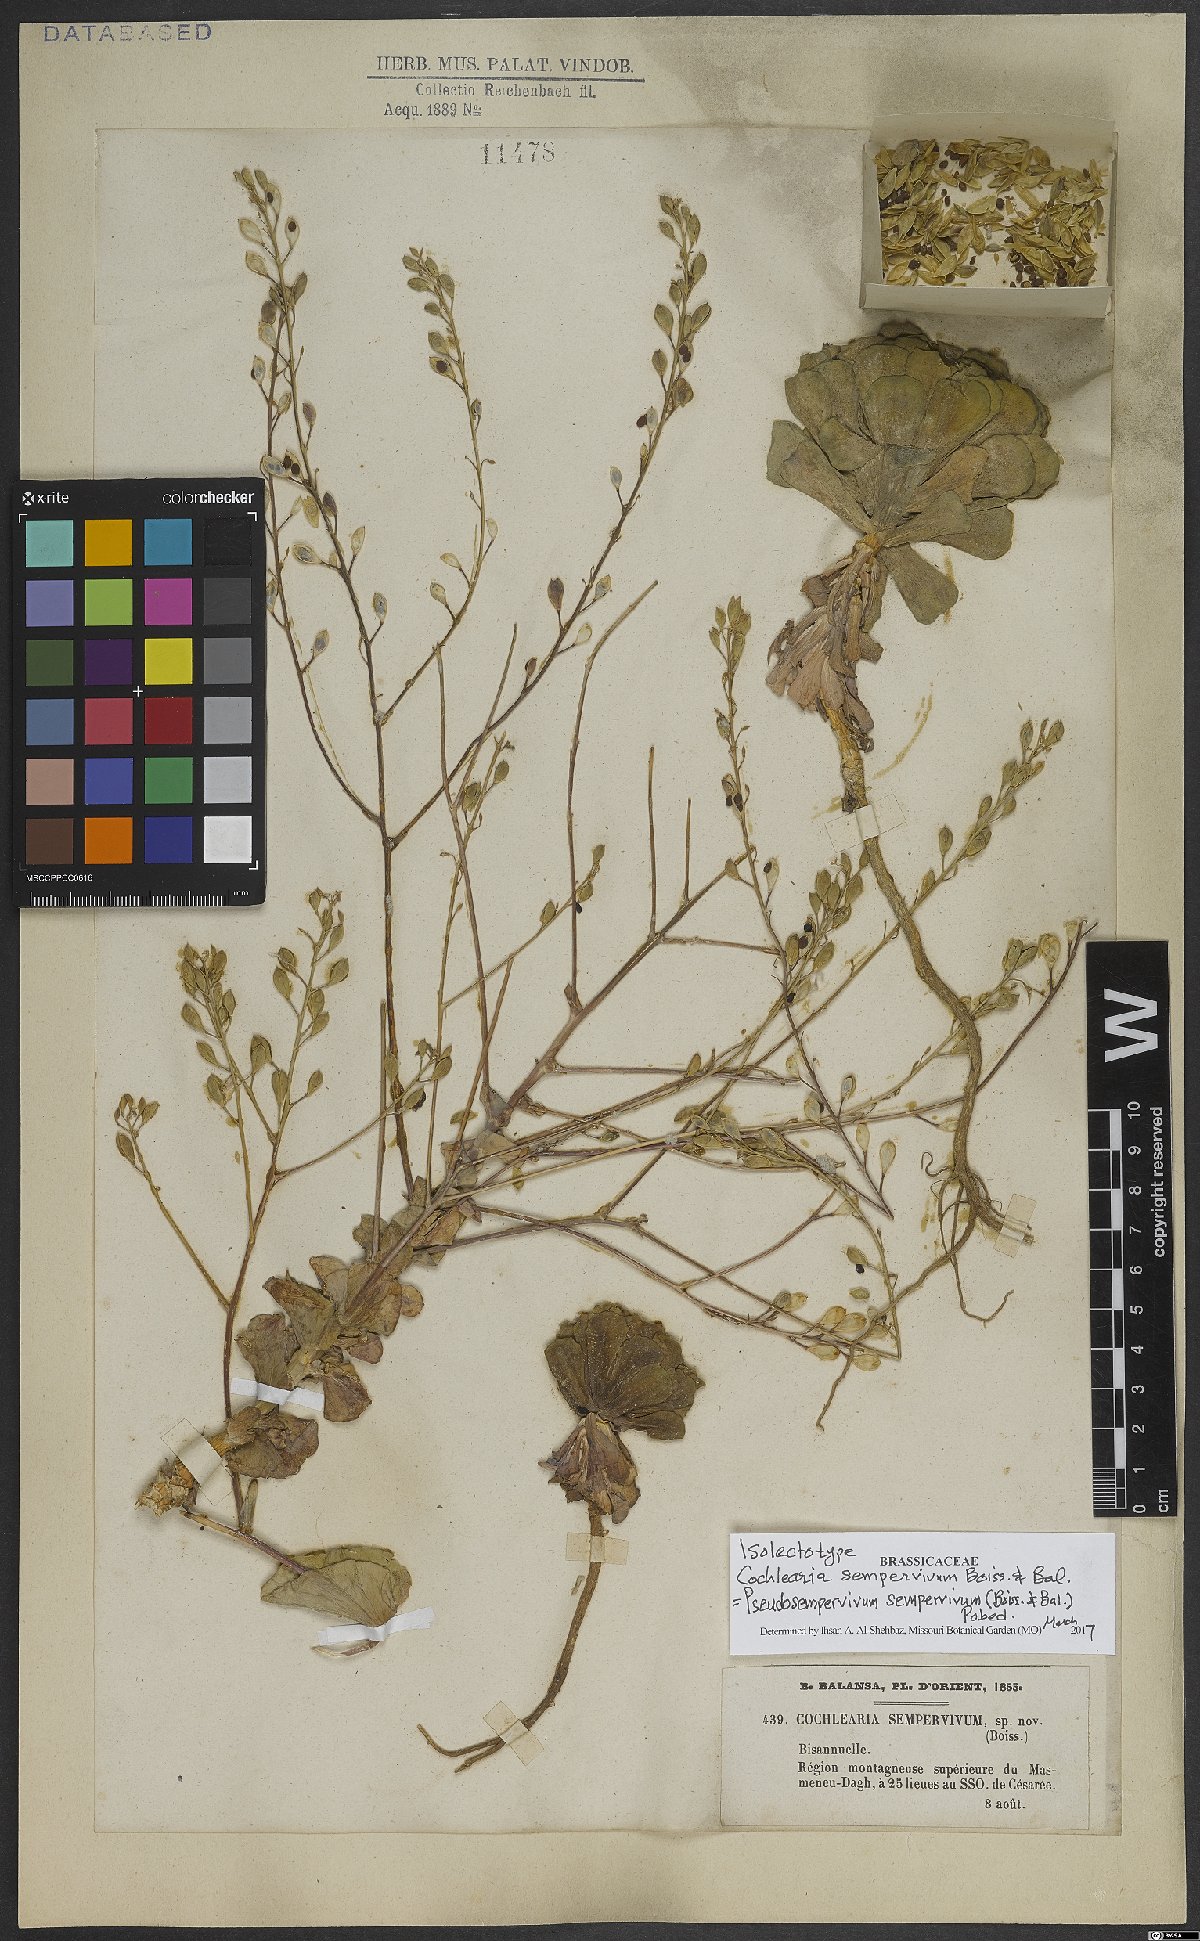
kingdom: Plantae
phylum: Tracheophyta
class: Magnoliopsida
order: Brassicales
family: Brassicaceae
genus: Pseudosempervivum
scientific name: Pseudosempervivum sempervivum
